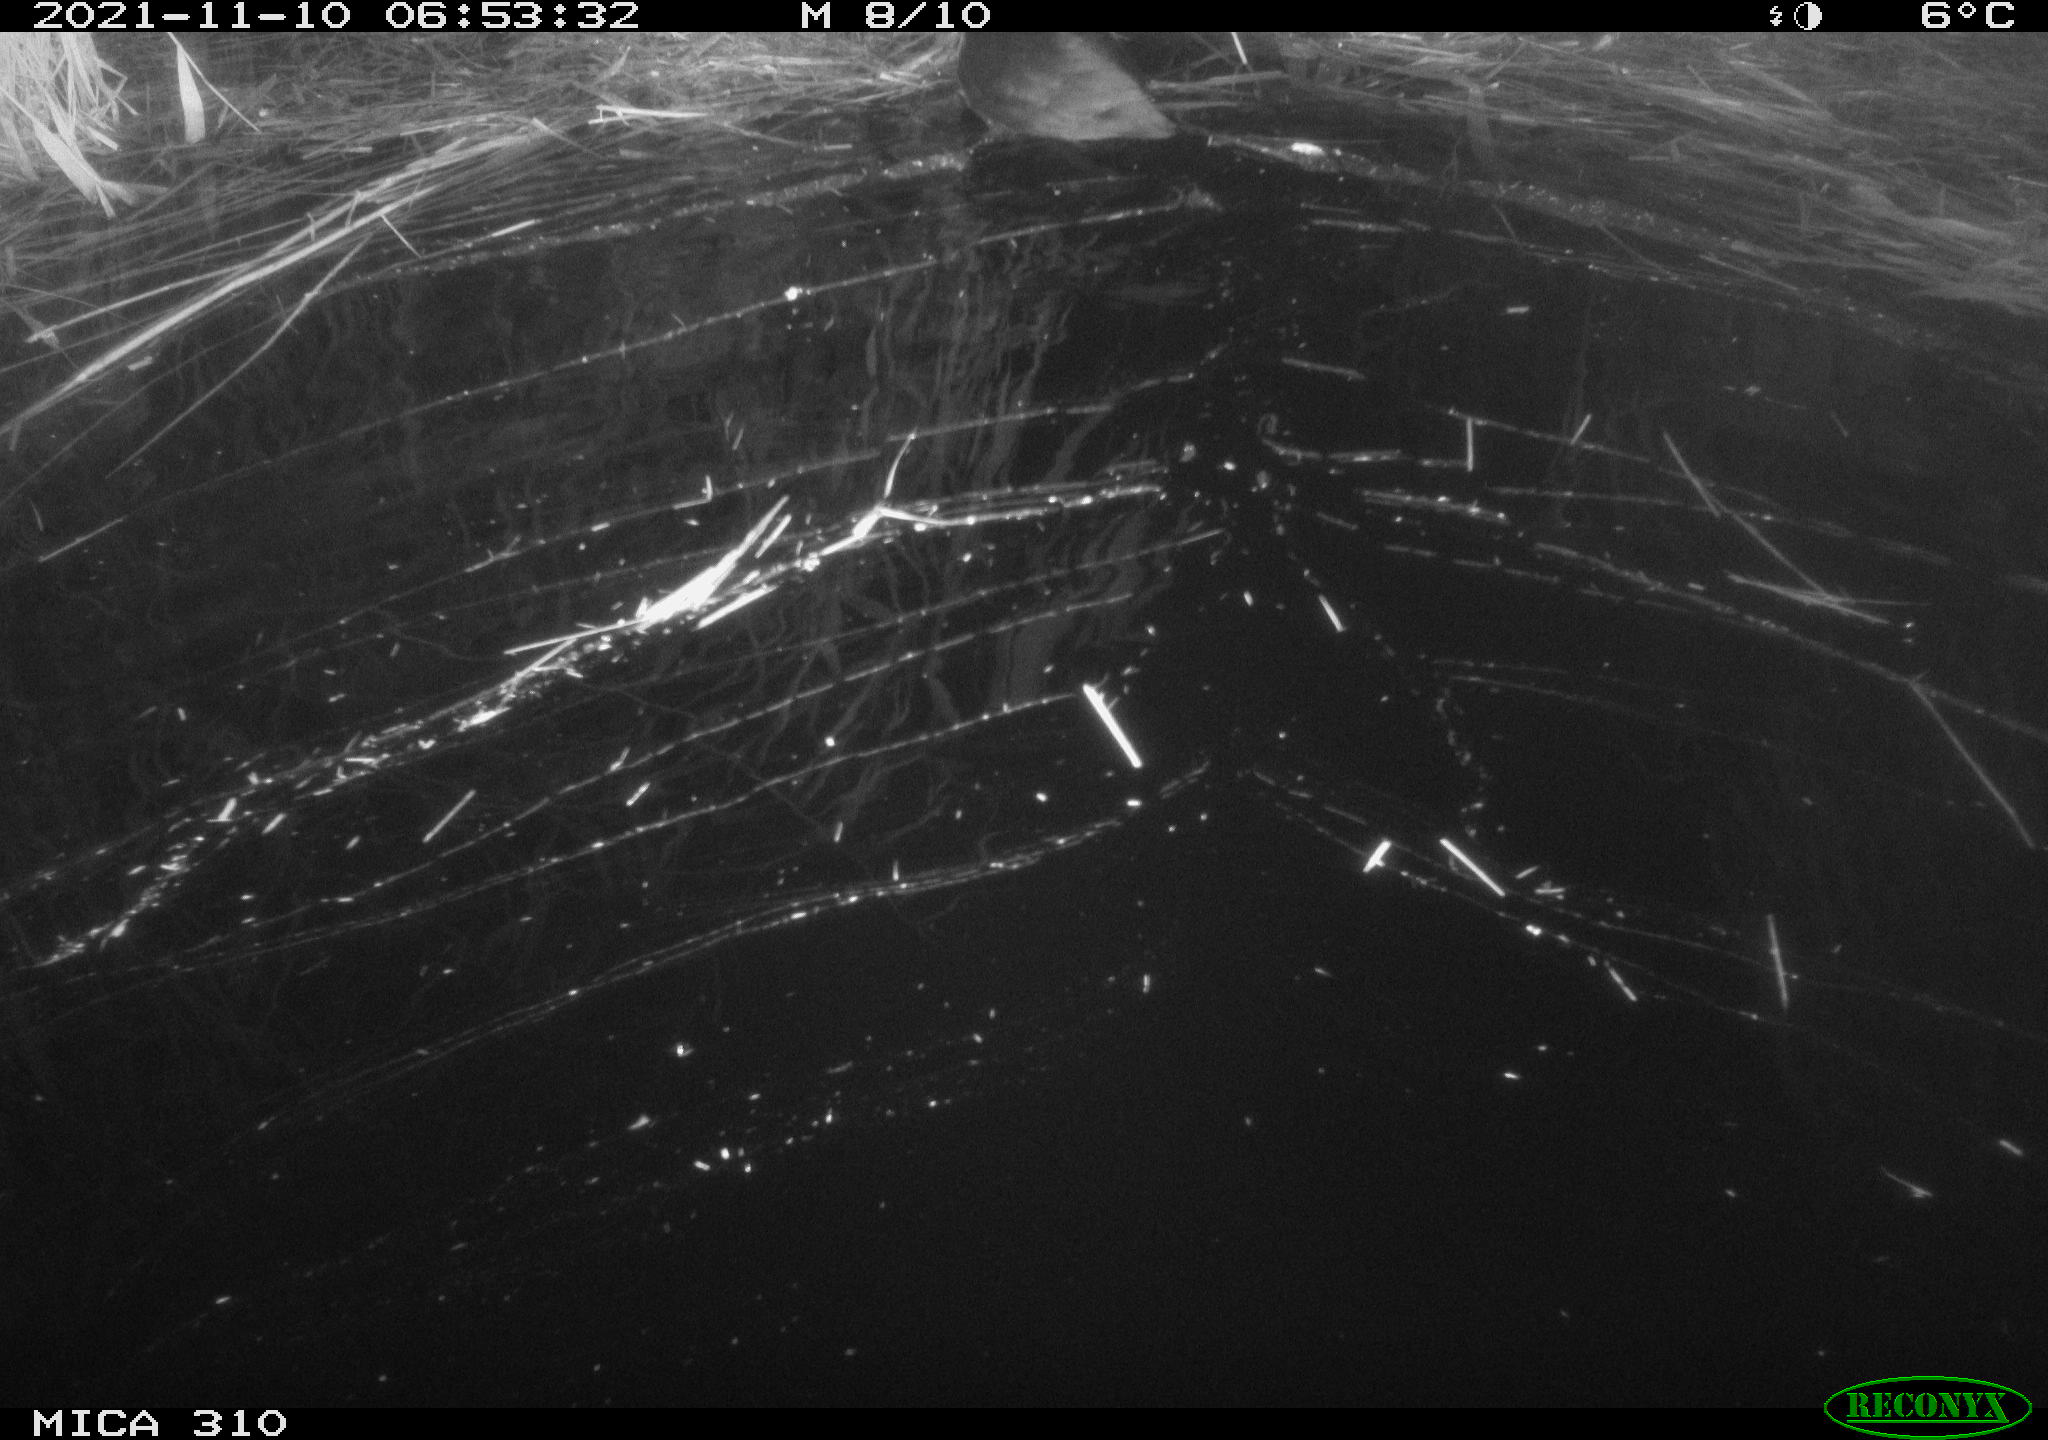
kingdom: Animalia
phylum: Chordata
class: Aves
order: Gruiformes
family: Rallidae
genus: Fulica
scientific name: Fulica atra
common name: Eurasian coot
